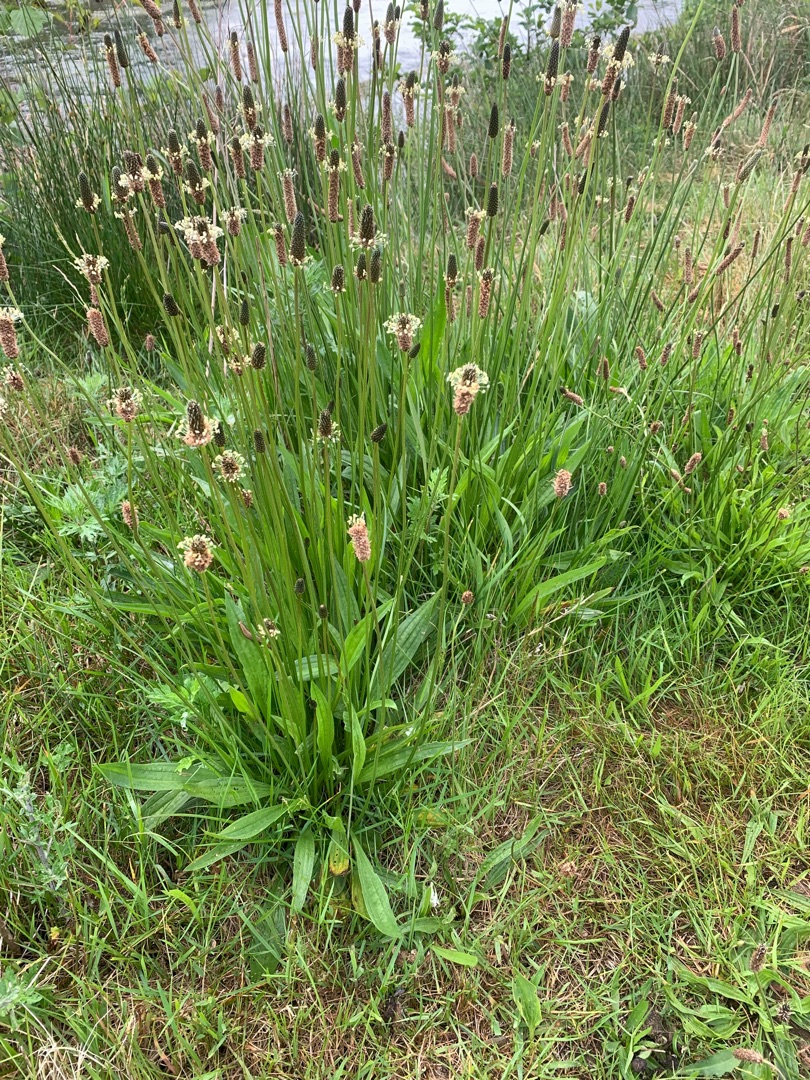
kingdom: Plantae
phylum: Tracheophyta
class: Magnoliopsida
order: Lamiales
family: Plantaginaceae
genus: Plantago
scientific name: Plantago lanceolata
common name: Lancet-vejbred
